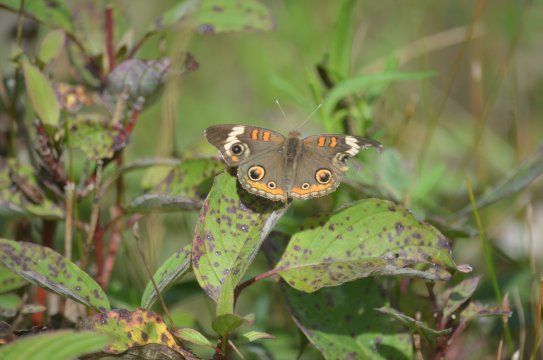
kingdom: Animalia
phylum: Arthropoda
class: Insecta
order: Lepidoptera
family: Nymphalidae
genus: Junonia
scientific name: Junonia coenia
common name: Common Buckeye
